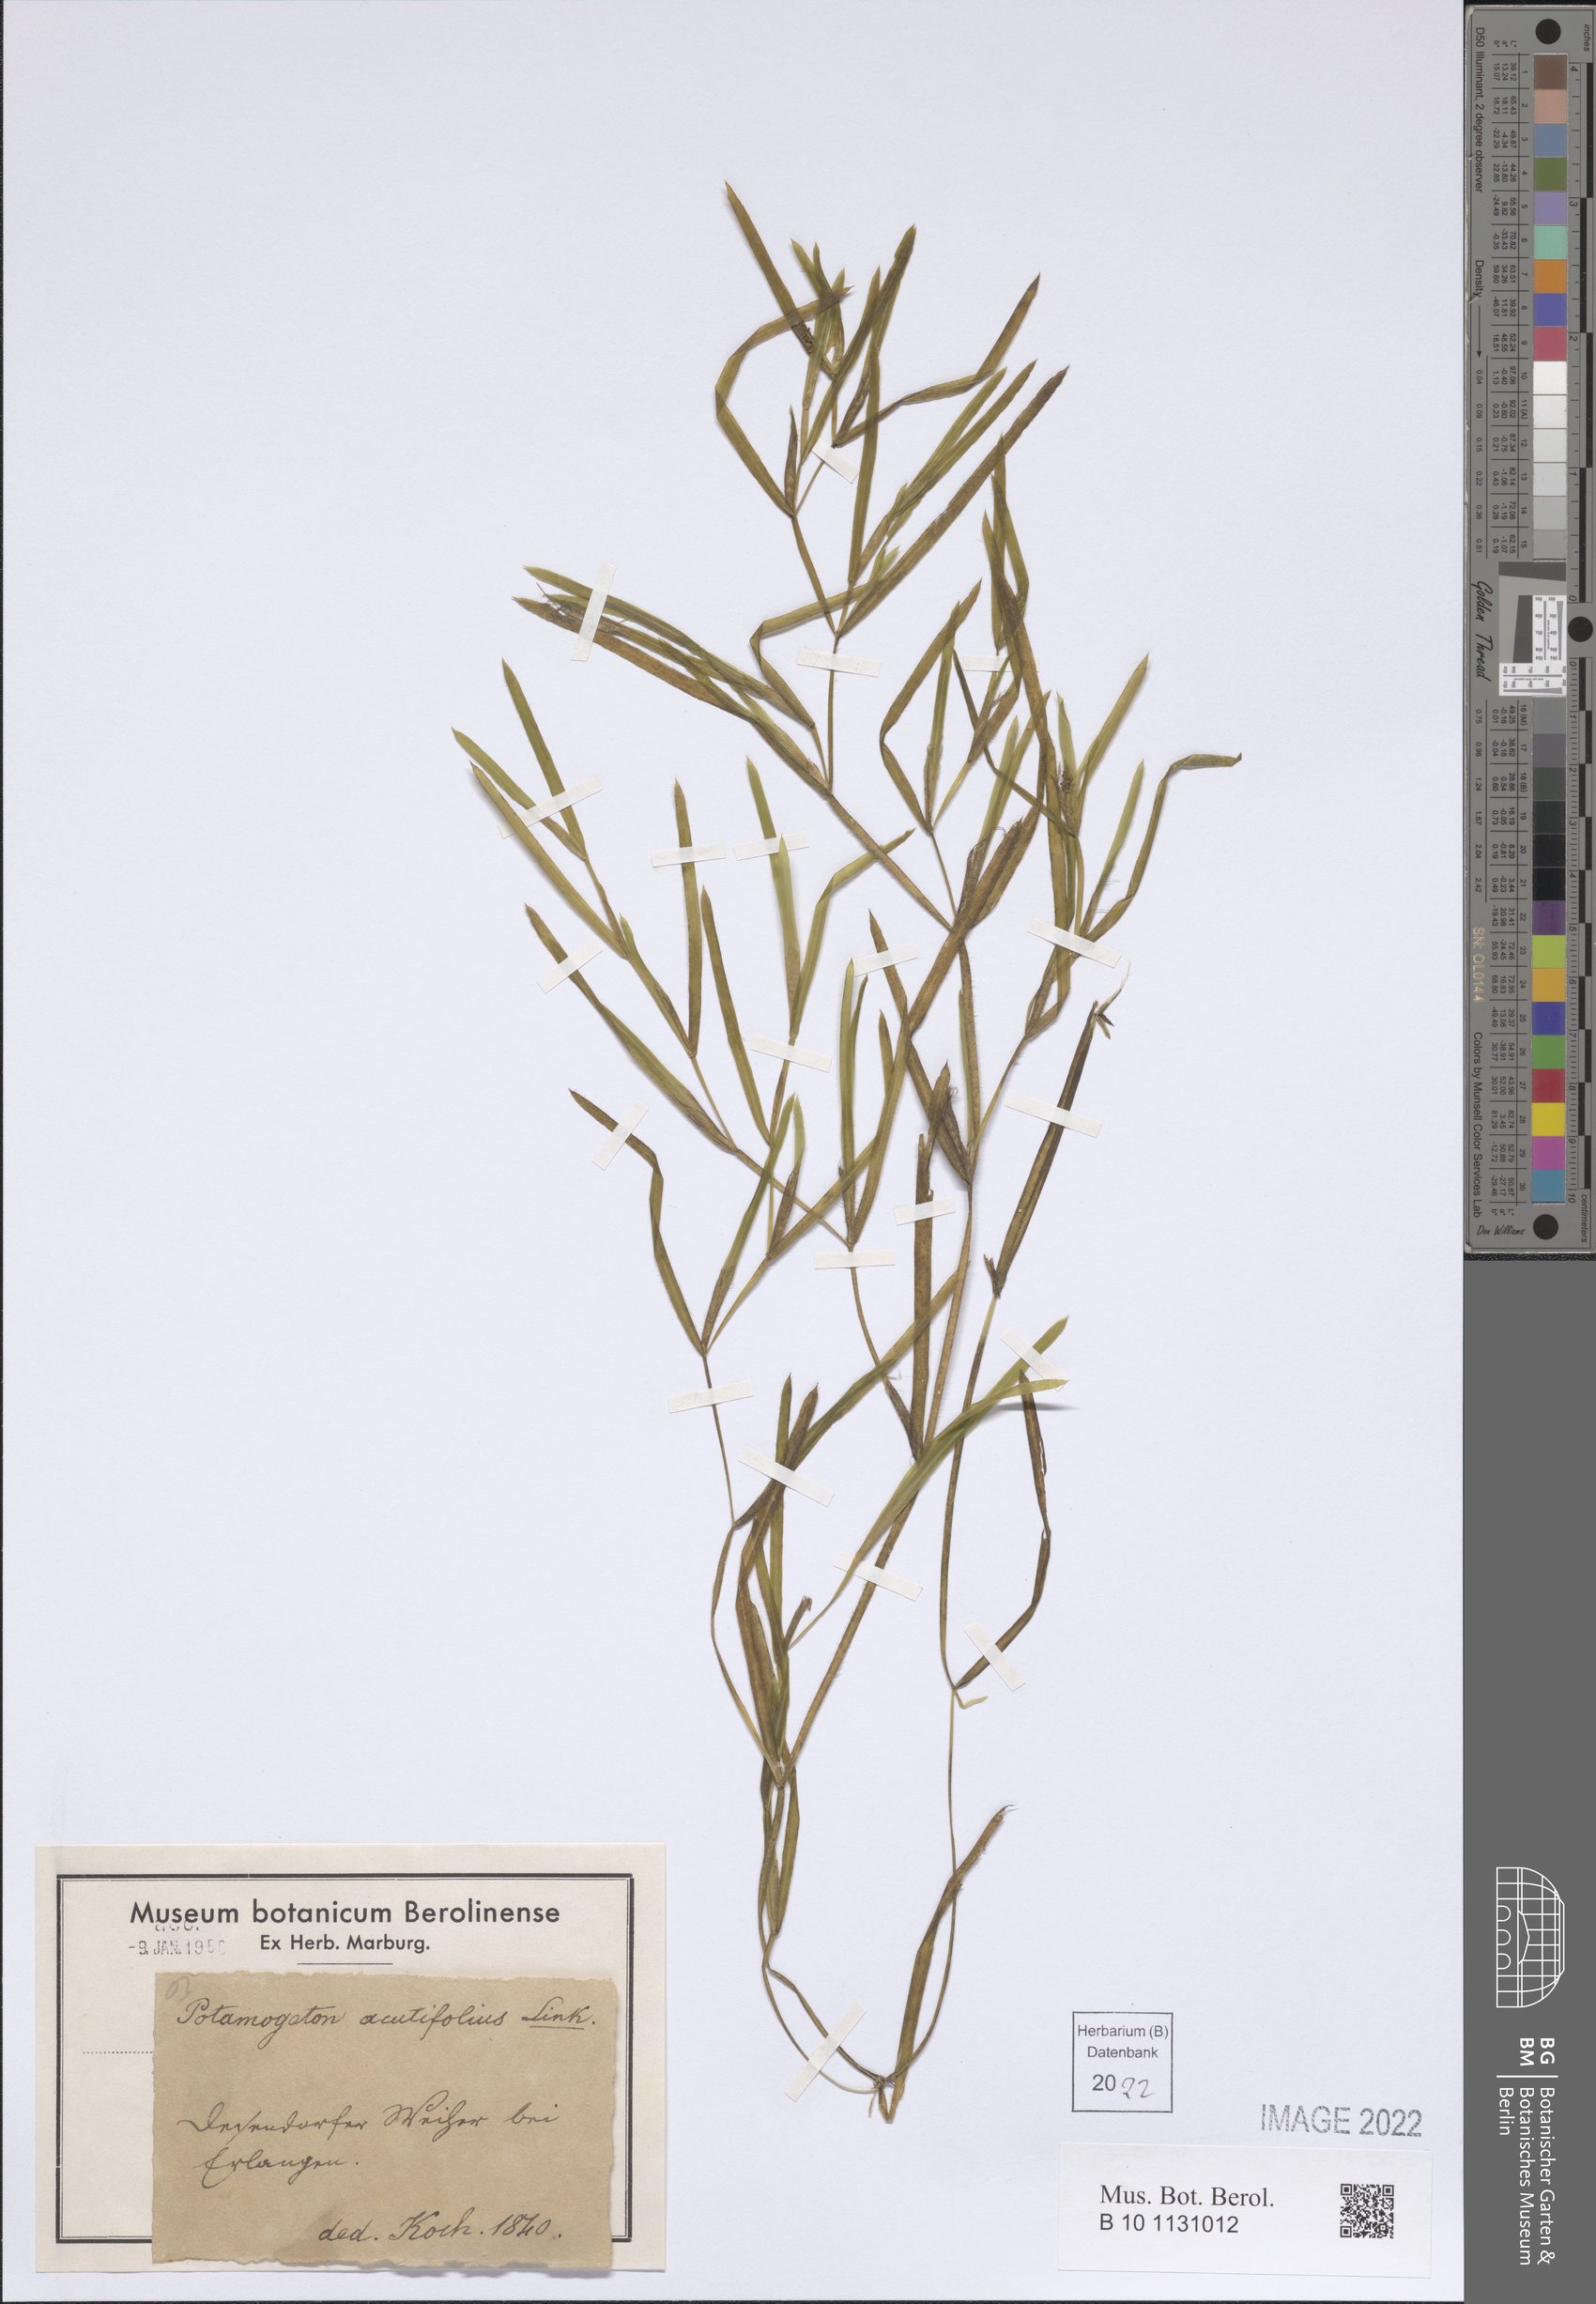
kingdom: Plantae
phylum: Tracheophyta
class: Liliopsida
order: Alismatales
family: Potamogetonaceae
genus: Potamogeton
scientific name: Potamogeton acutifolius
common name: Sharp-leaved pondweed
